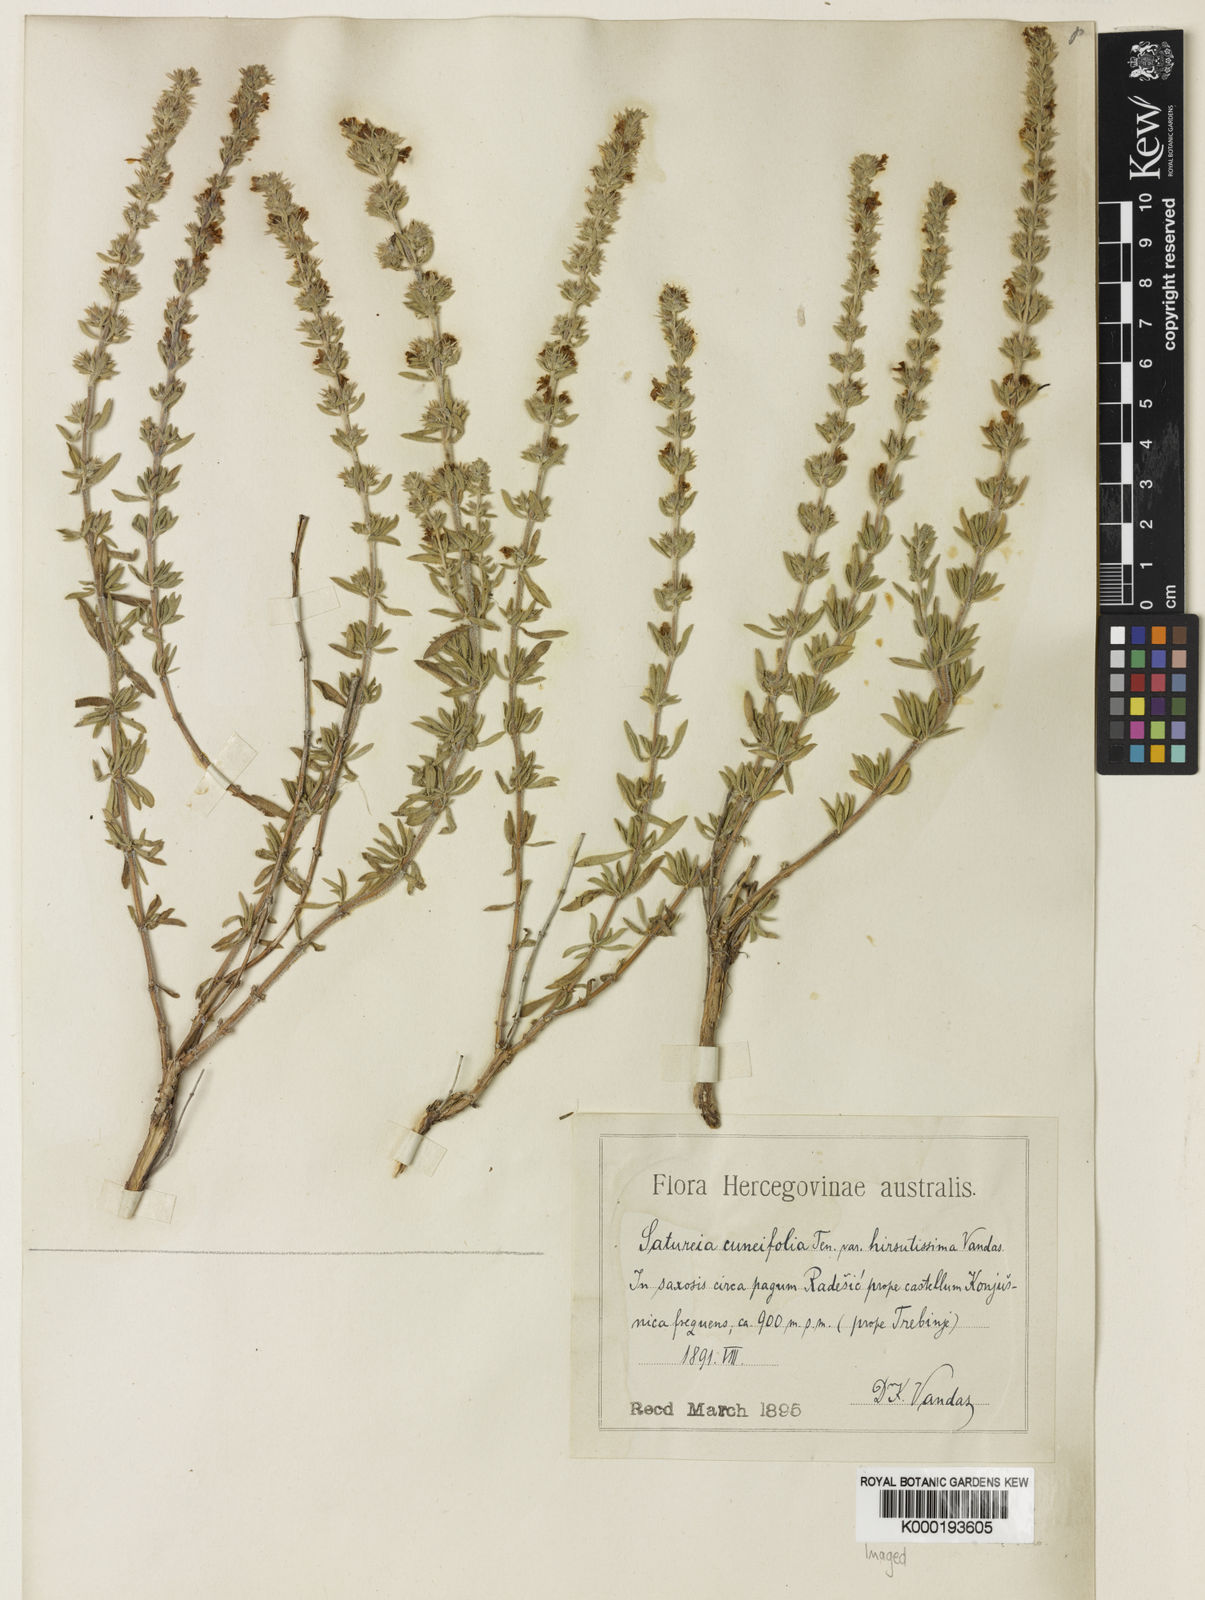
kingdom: Plantae
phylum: Tracheophyta
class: Magnoliopsida
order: Lamiales
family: Lamiaceae
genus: Satureja
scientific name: Satureja cuneifolia
